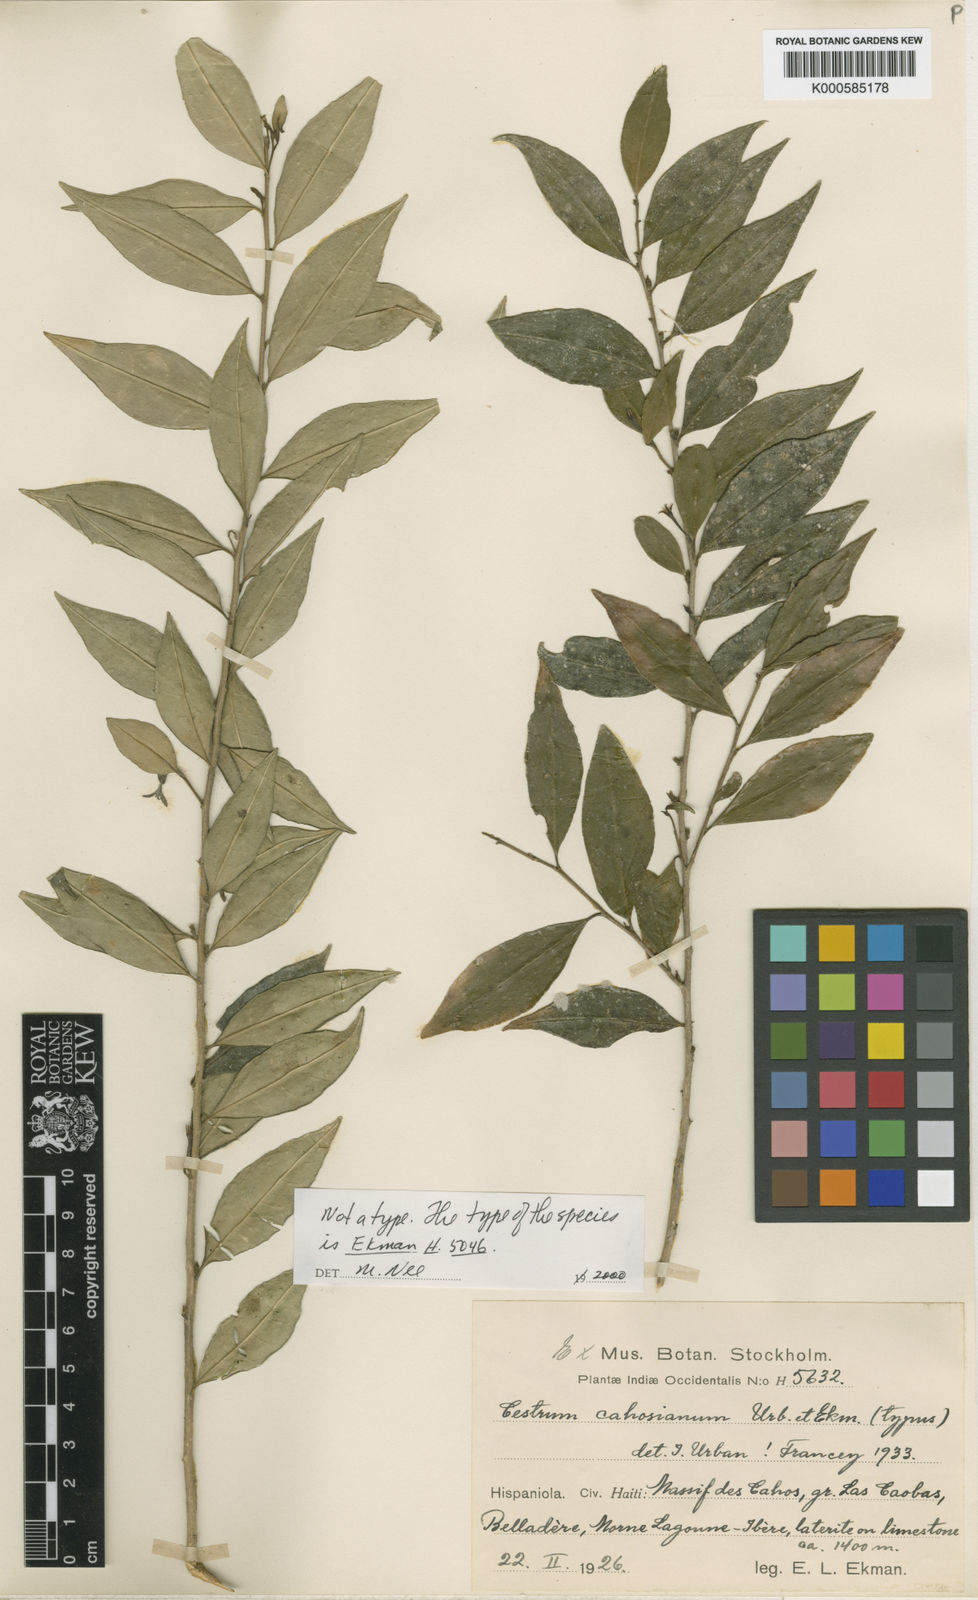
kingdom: Plantae
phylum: Tracheophyta
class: Magnoliopsida
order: Solanales
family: Solanaceae
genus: Cestrum
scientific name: Cestrum cahosianum
